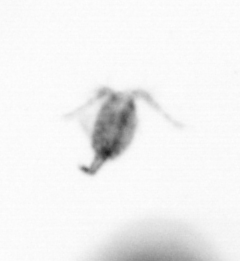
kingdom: Animalia
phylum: Arthropoda
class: Copepoda
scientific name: Copepoda
